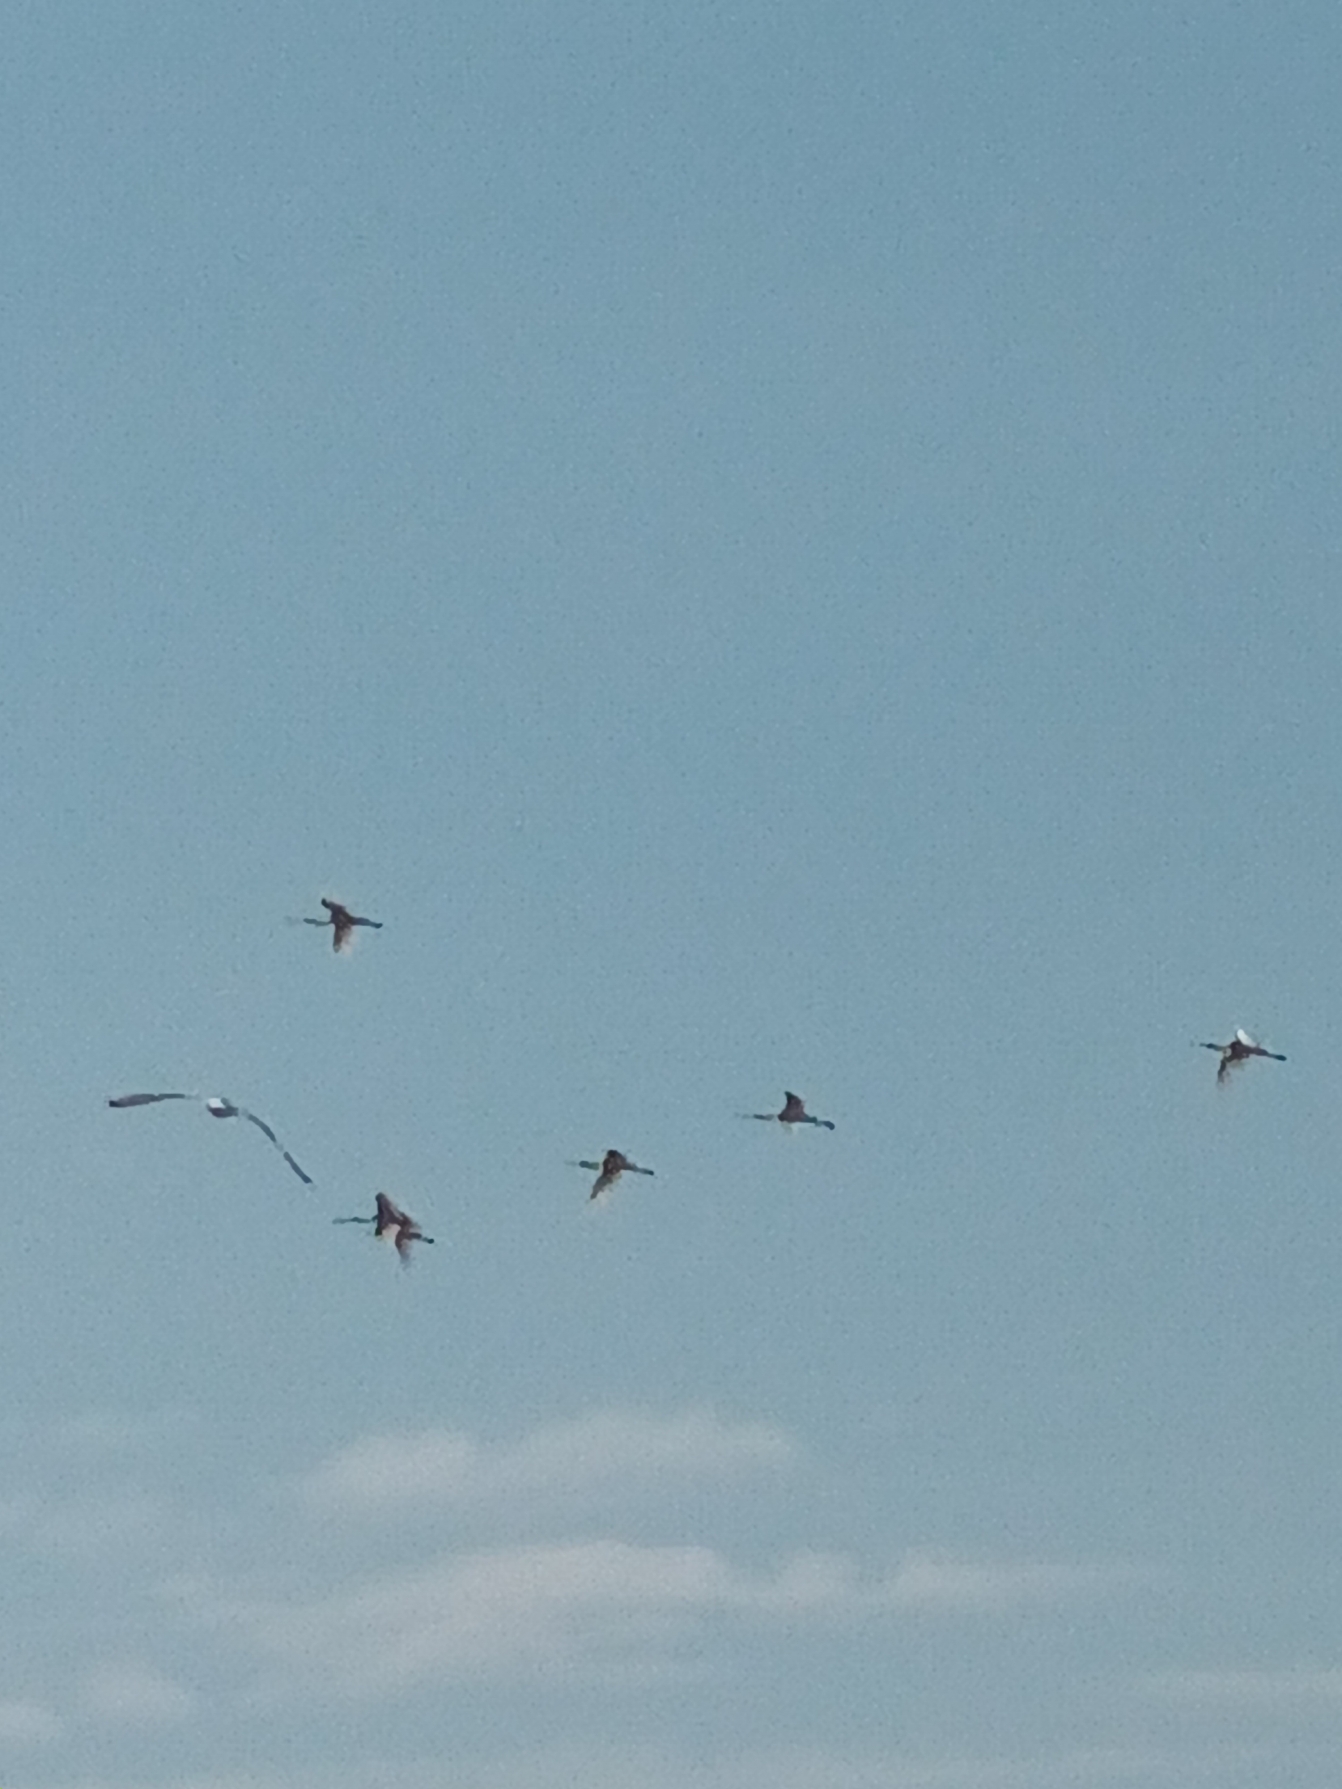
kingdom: Animalia
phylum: Chordata
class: Aves
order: Pelecaniformes
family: Threskiornithidae
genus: Platalea
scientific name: Platalea leucorodia
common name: Skestork
